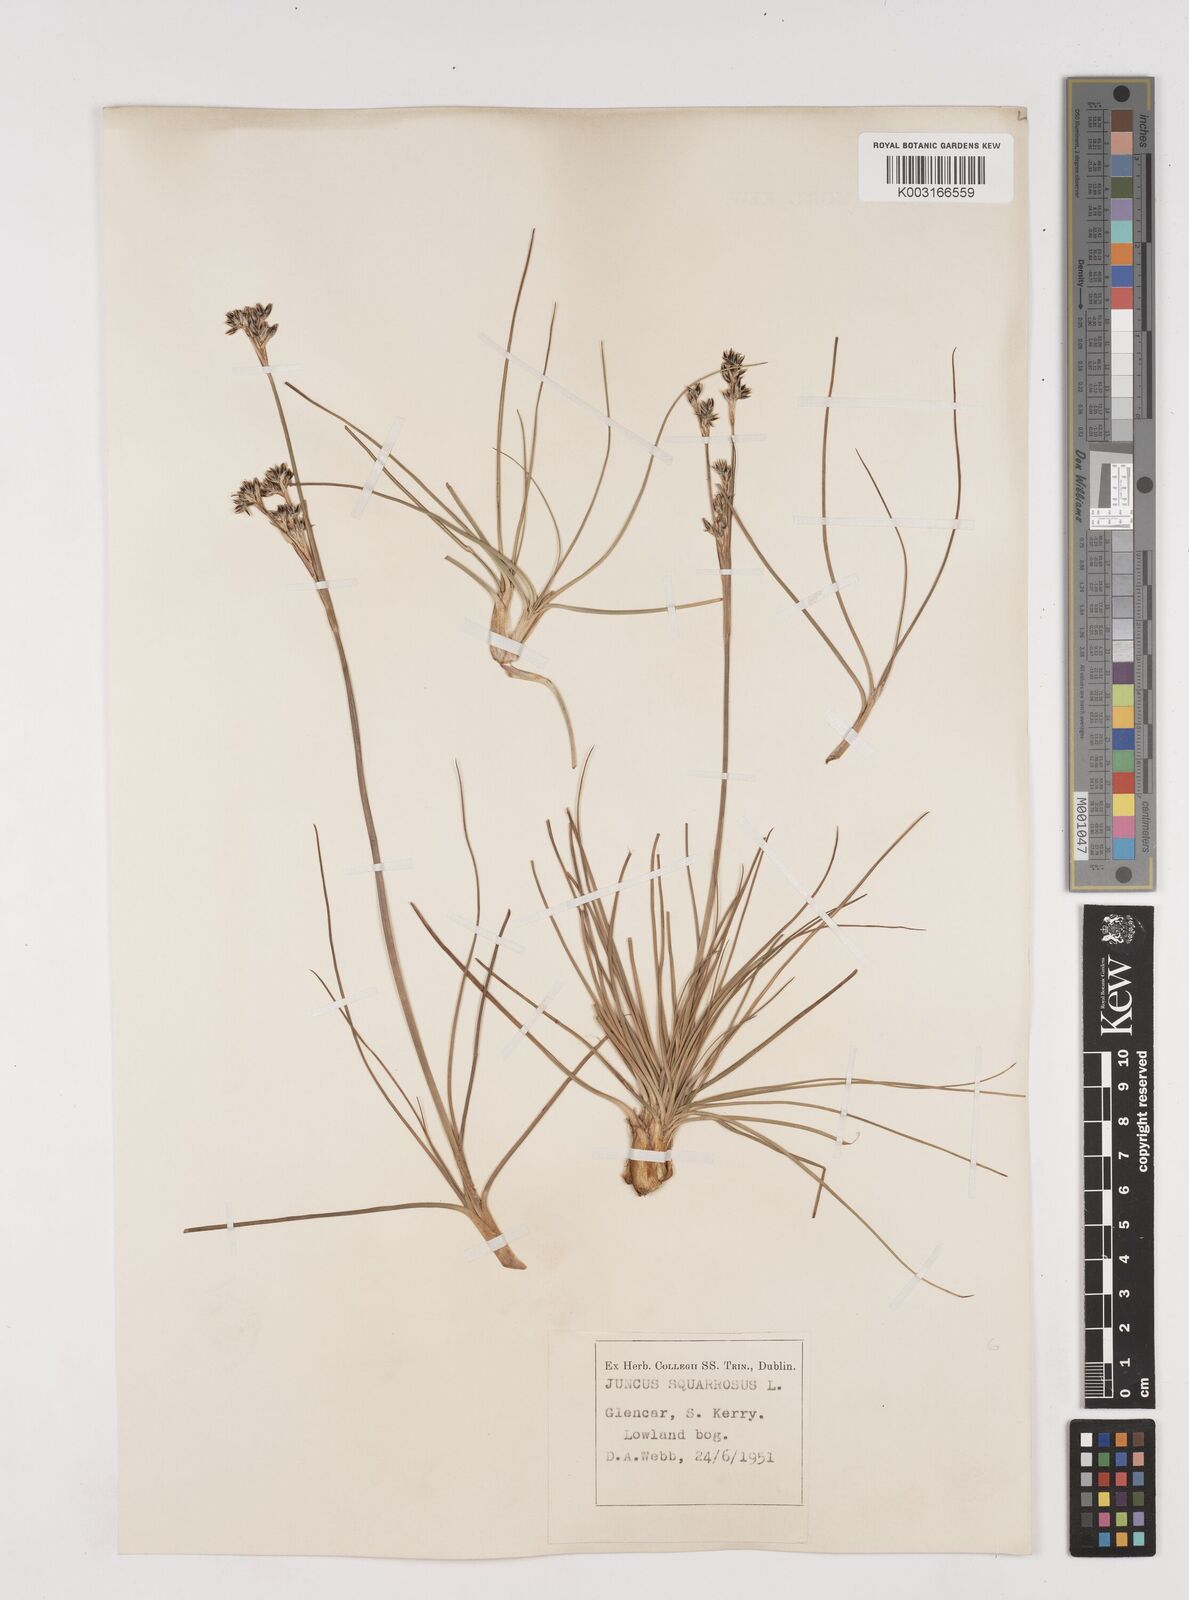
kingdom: Plantae
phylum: Tracheophyta
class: Liliopsida
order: Poales
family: Juncaceae
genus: Juncus
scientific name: Juncus squarrosus
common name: Heath rush
